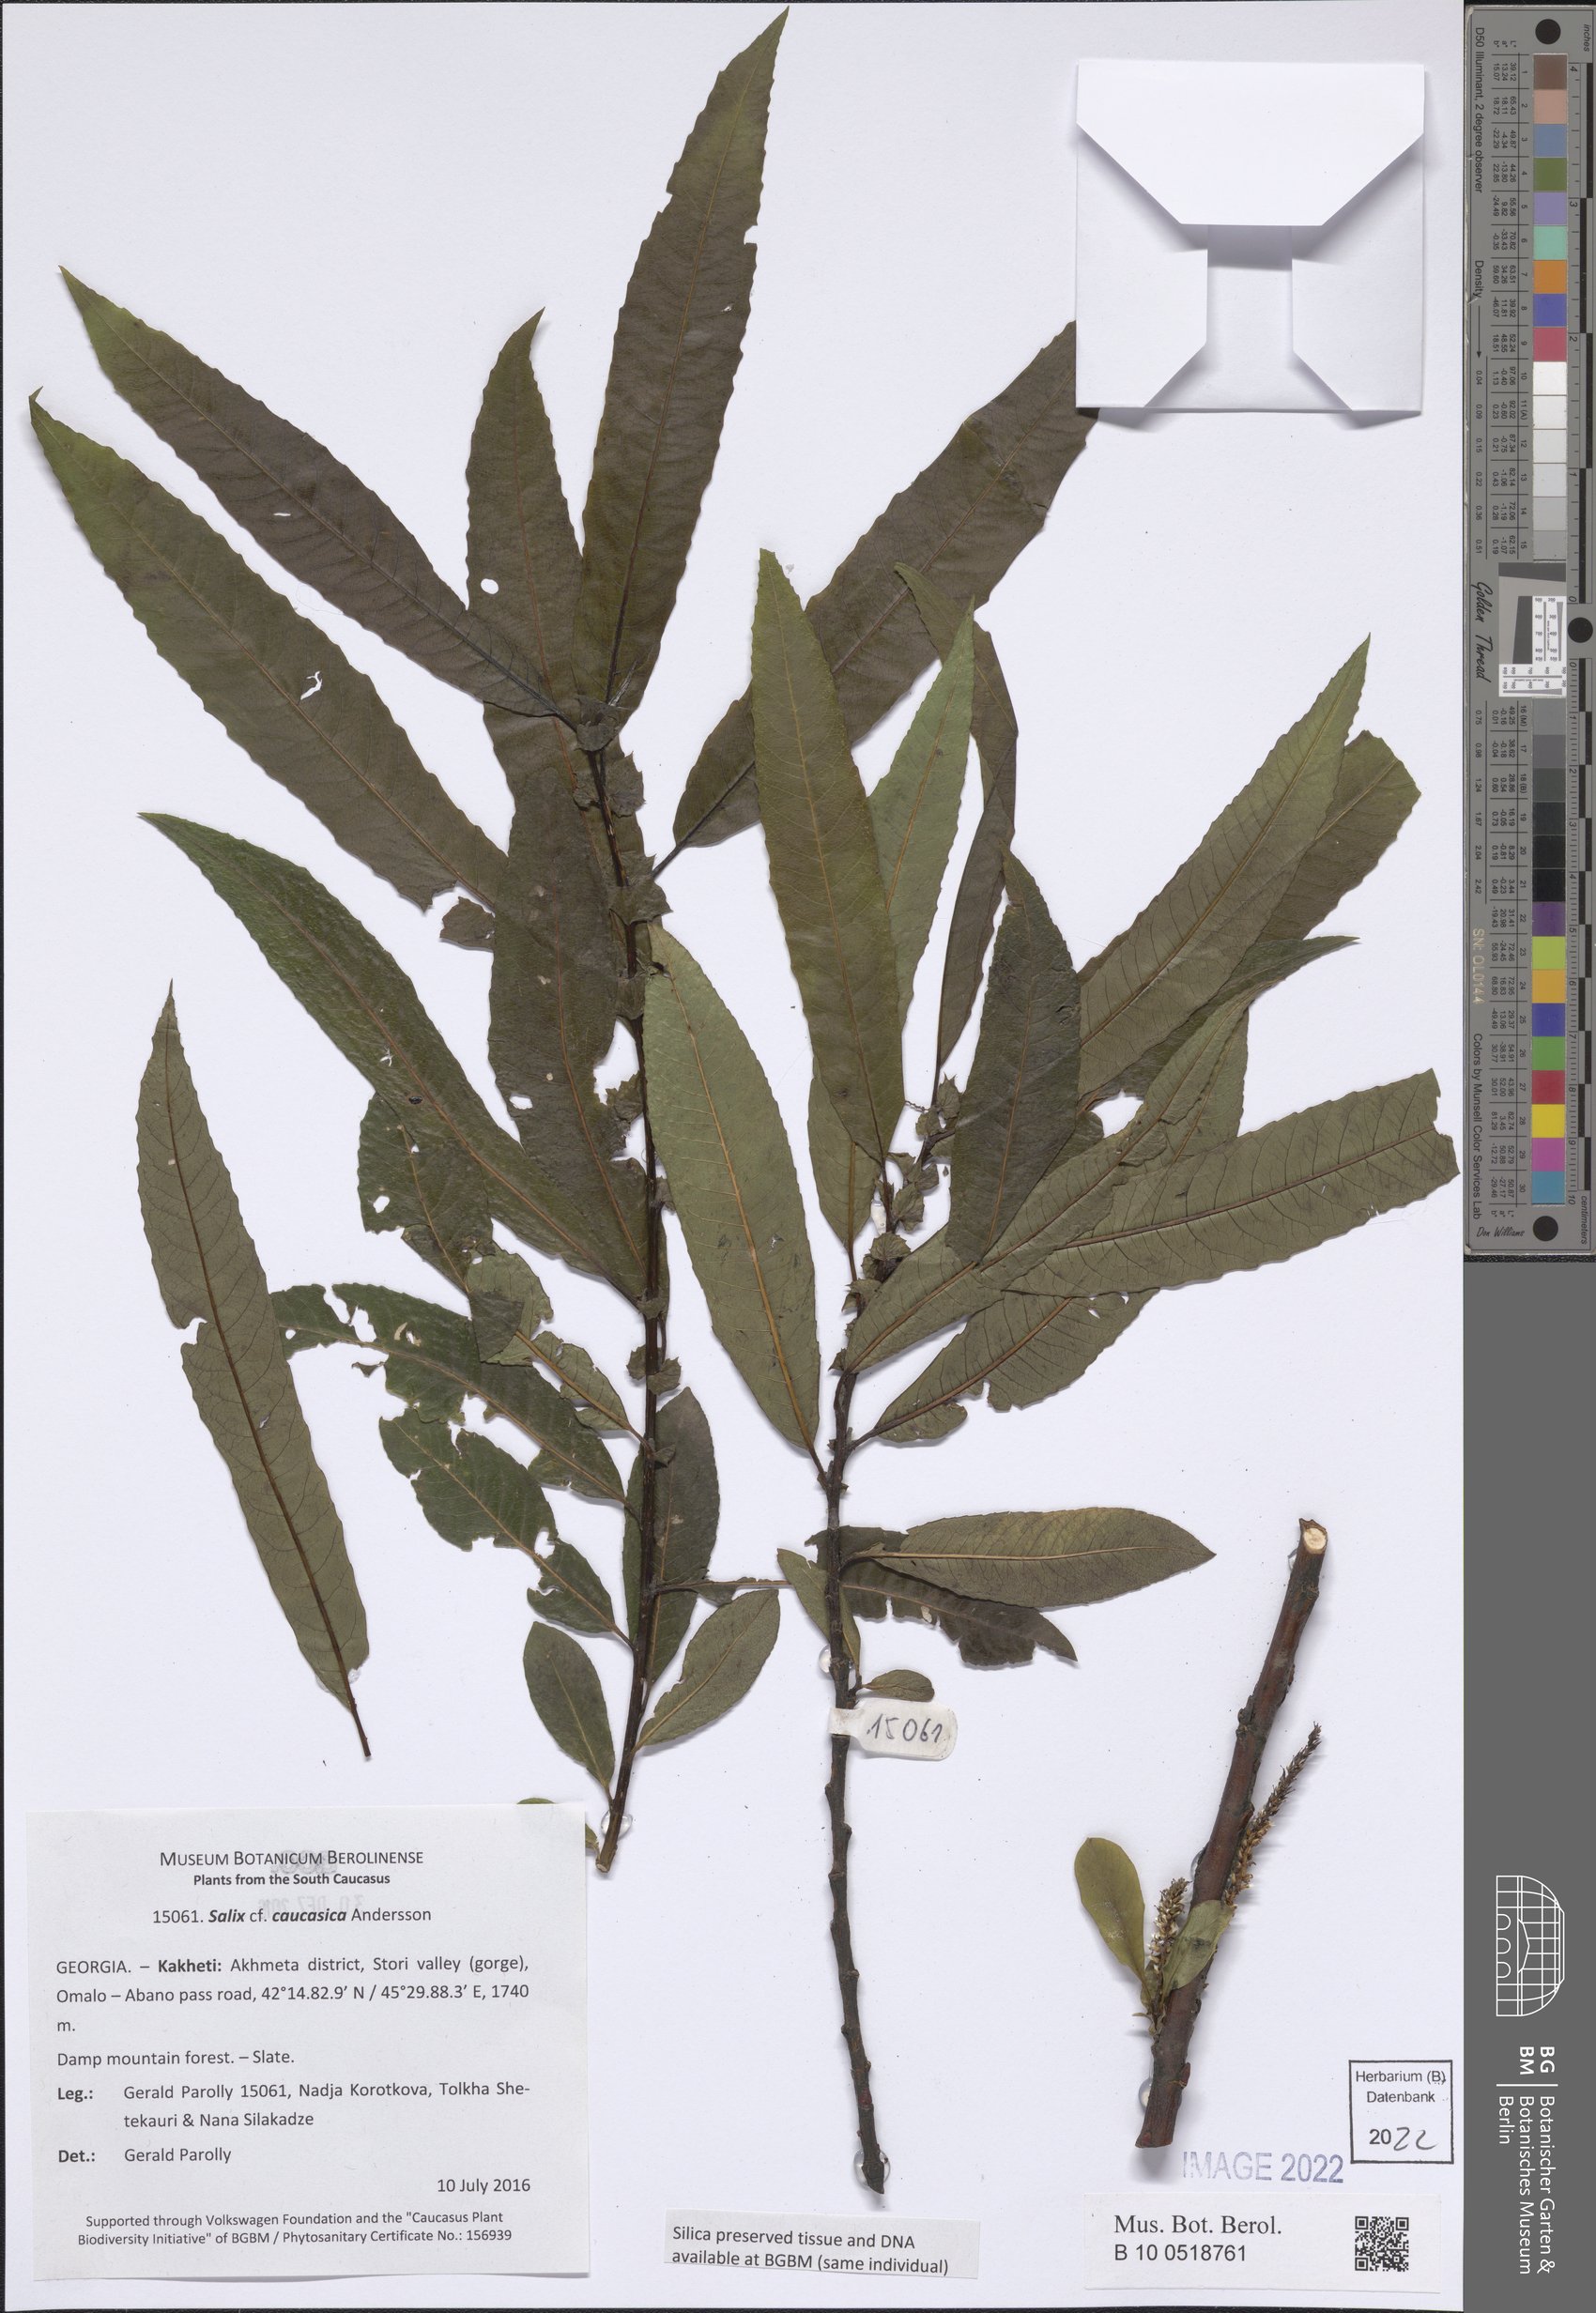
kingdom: Plantae
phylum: Tracheophyta
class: Magnoliopsida
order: Malpighiales
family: Salicaceae
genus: Salix
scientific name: Salix caucasica
